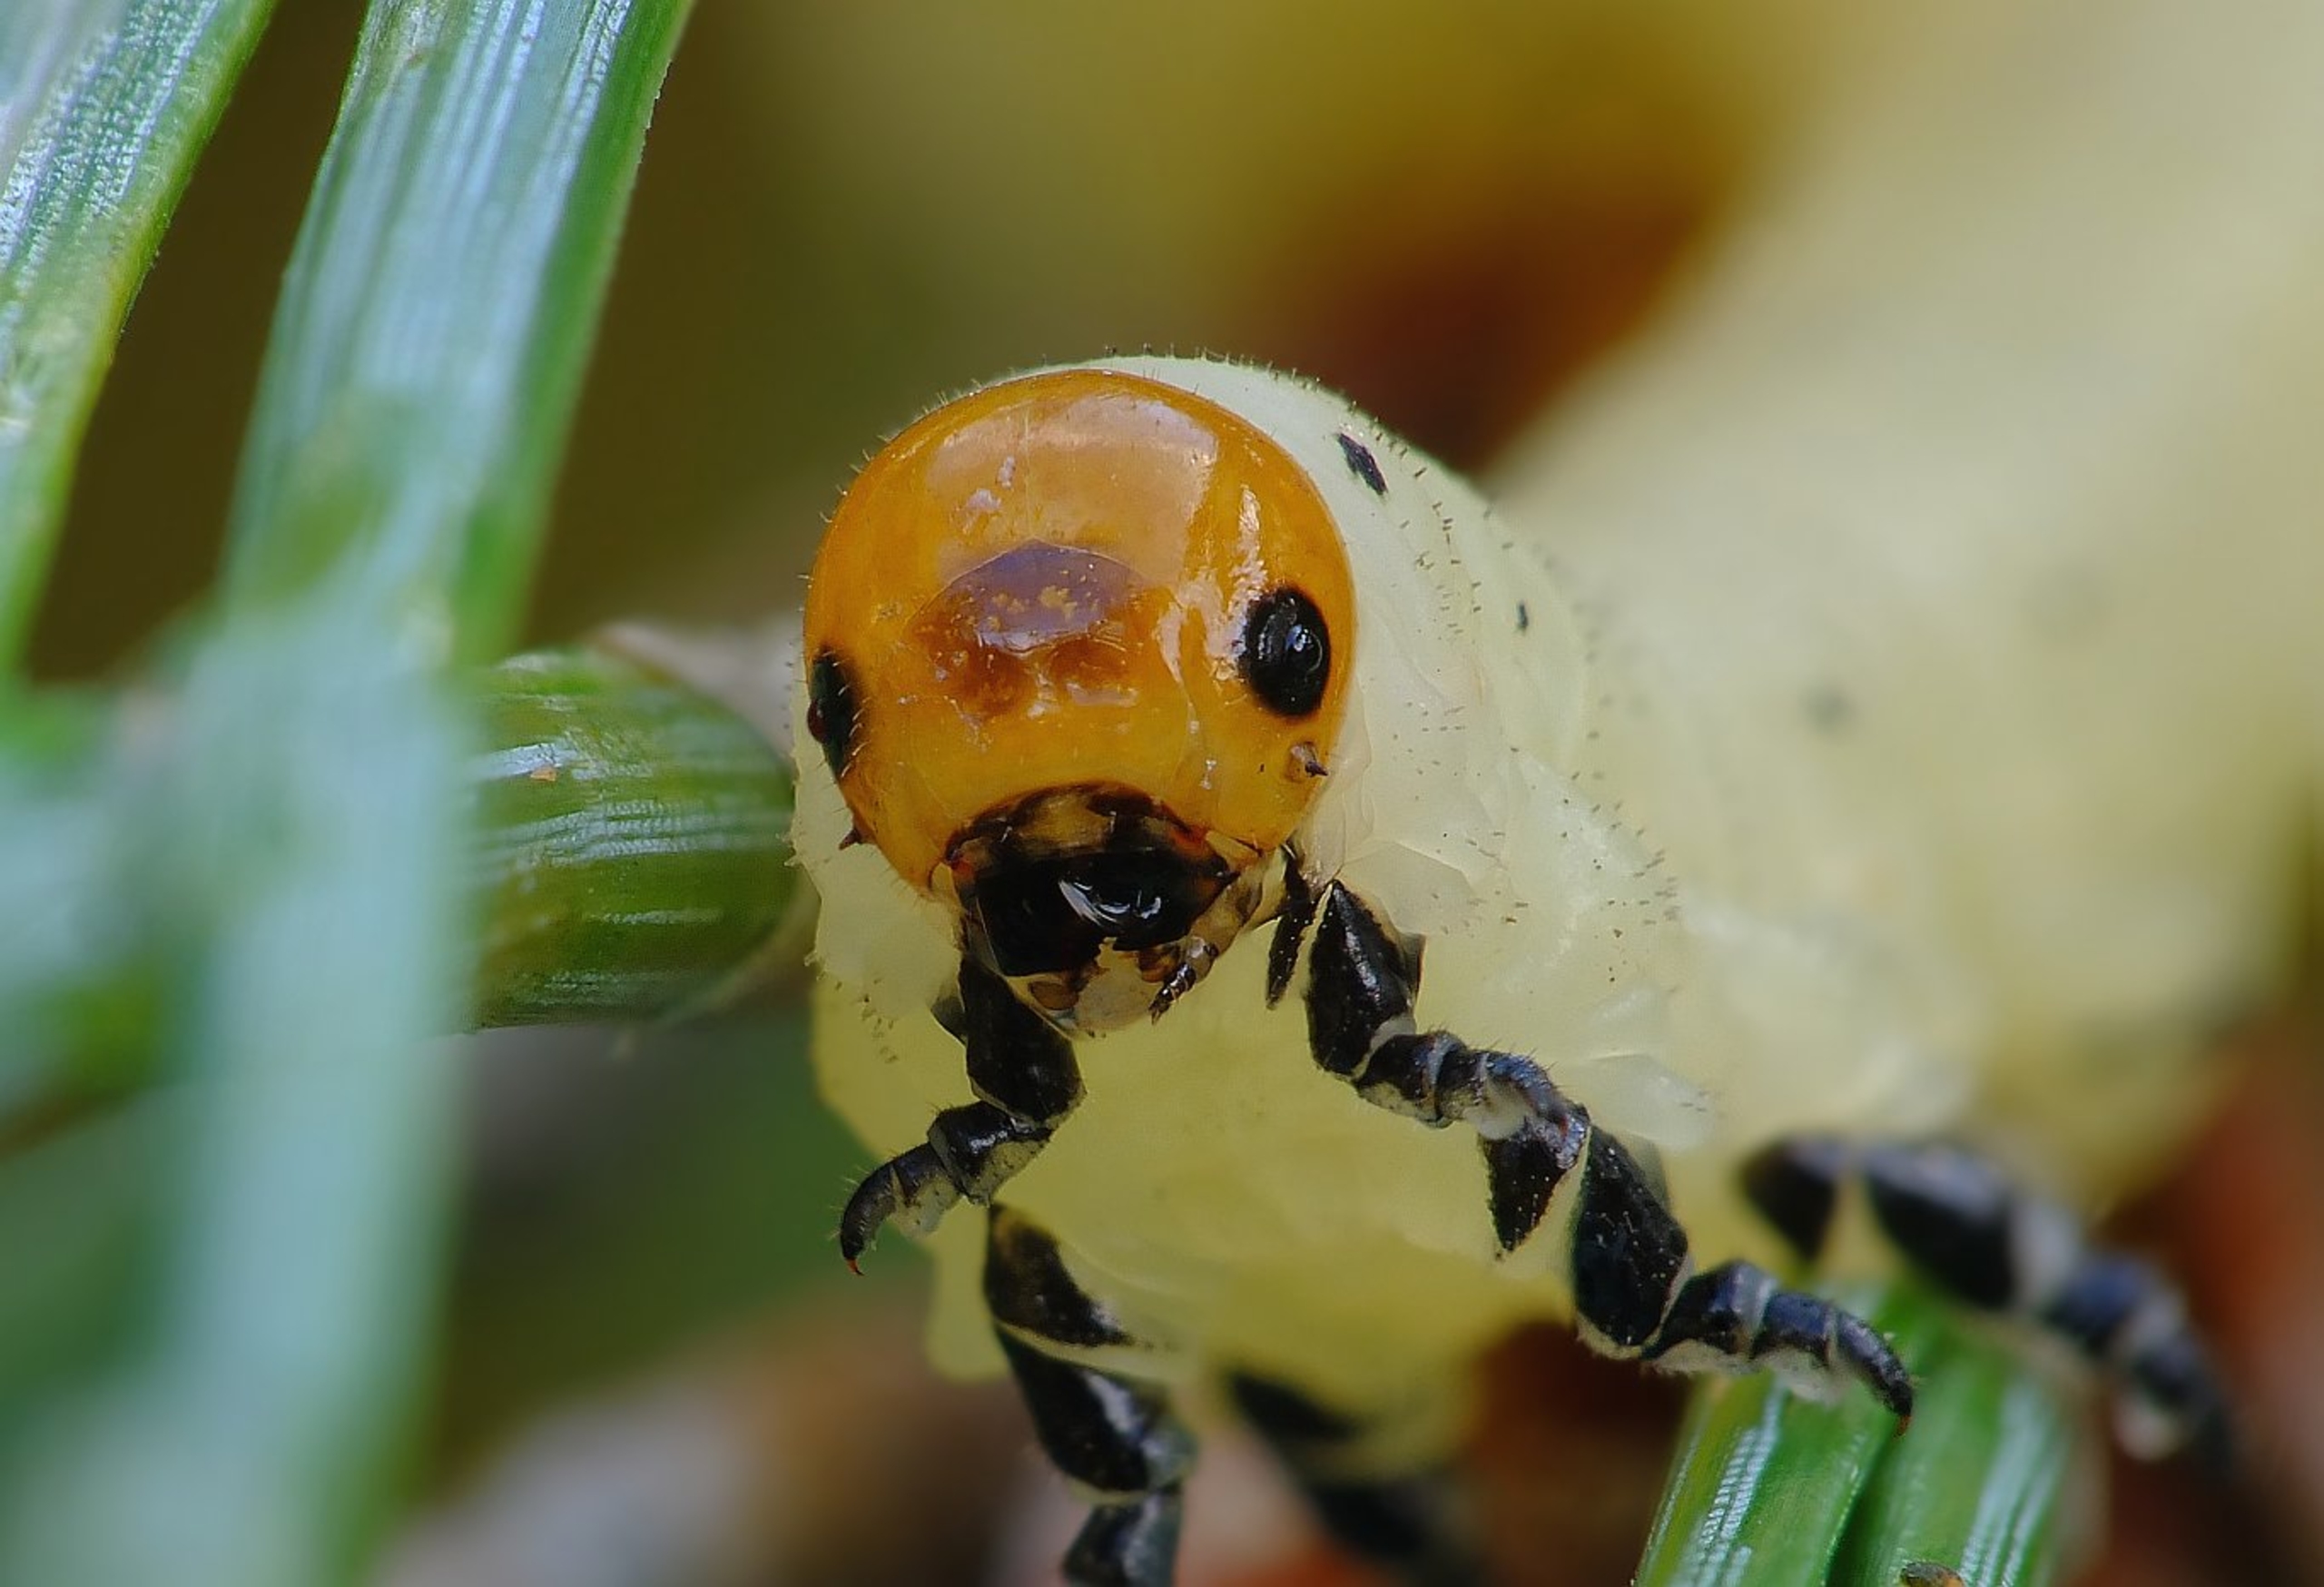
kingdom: Animalia
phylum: Arthropoda
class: Insecta
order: Hymenoptera
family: Diprionidae
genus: Diprion
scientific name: Diprion pini
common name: Almindelig fyrrehveps
